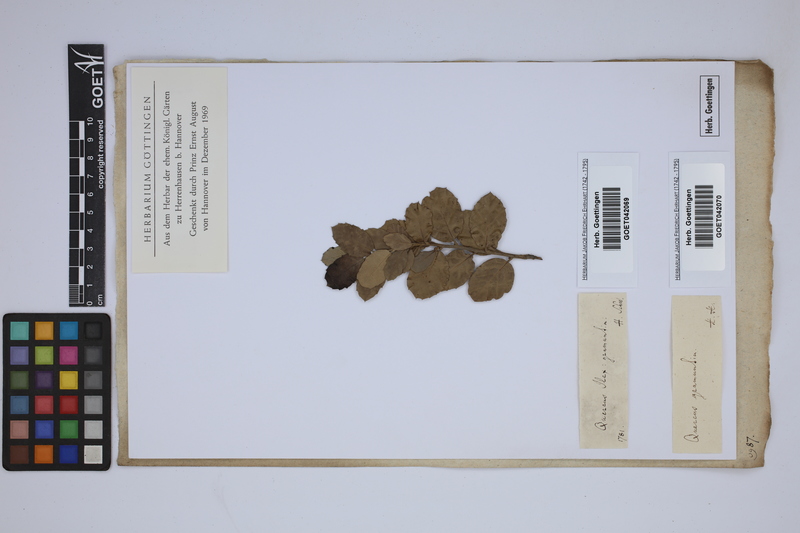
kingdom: Plantae
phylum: Tracheophyta
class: Magnoliopsida
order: Fagales
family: Fagaceae
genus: Quercus
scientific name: Quercus ilex
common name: Evergreen oak
